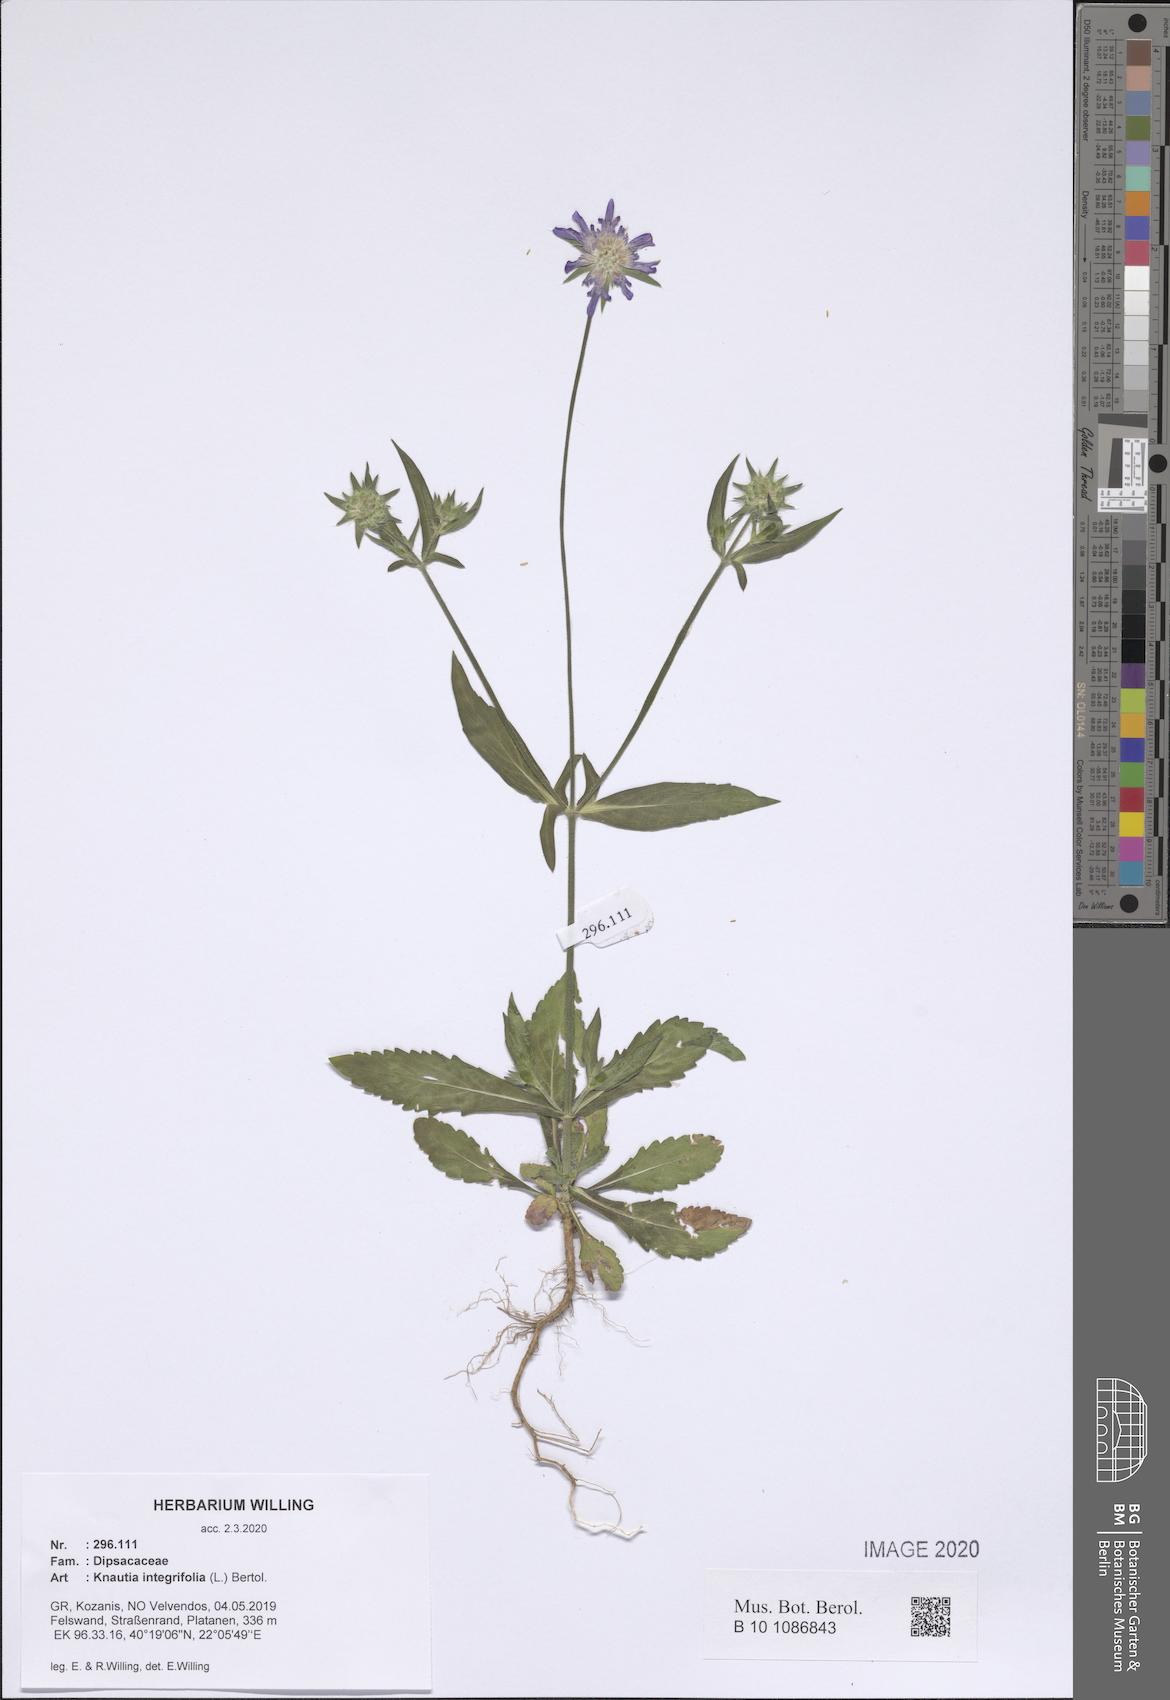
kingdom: Plantae
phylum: Tracheophyta
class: Magnoliopsida
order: Dipsacales
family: Caprifoliaceae
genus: Knautia
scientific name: Knautia integrifolia
